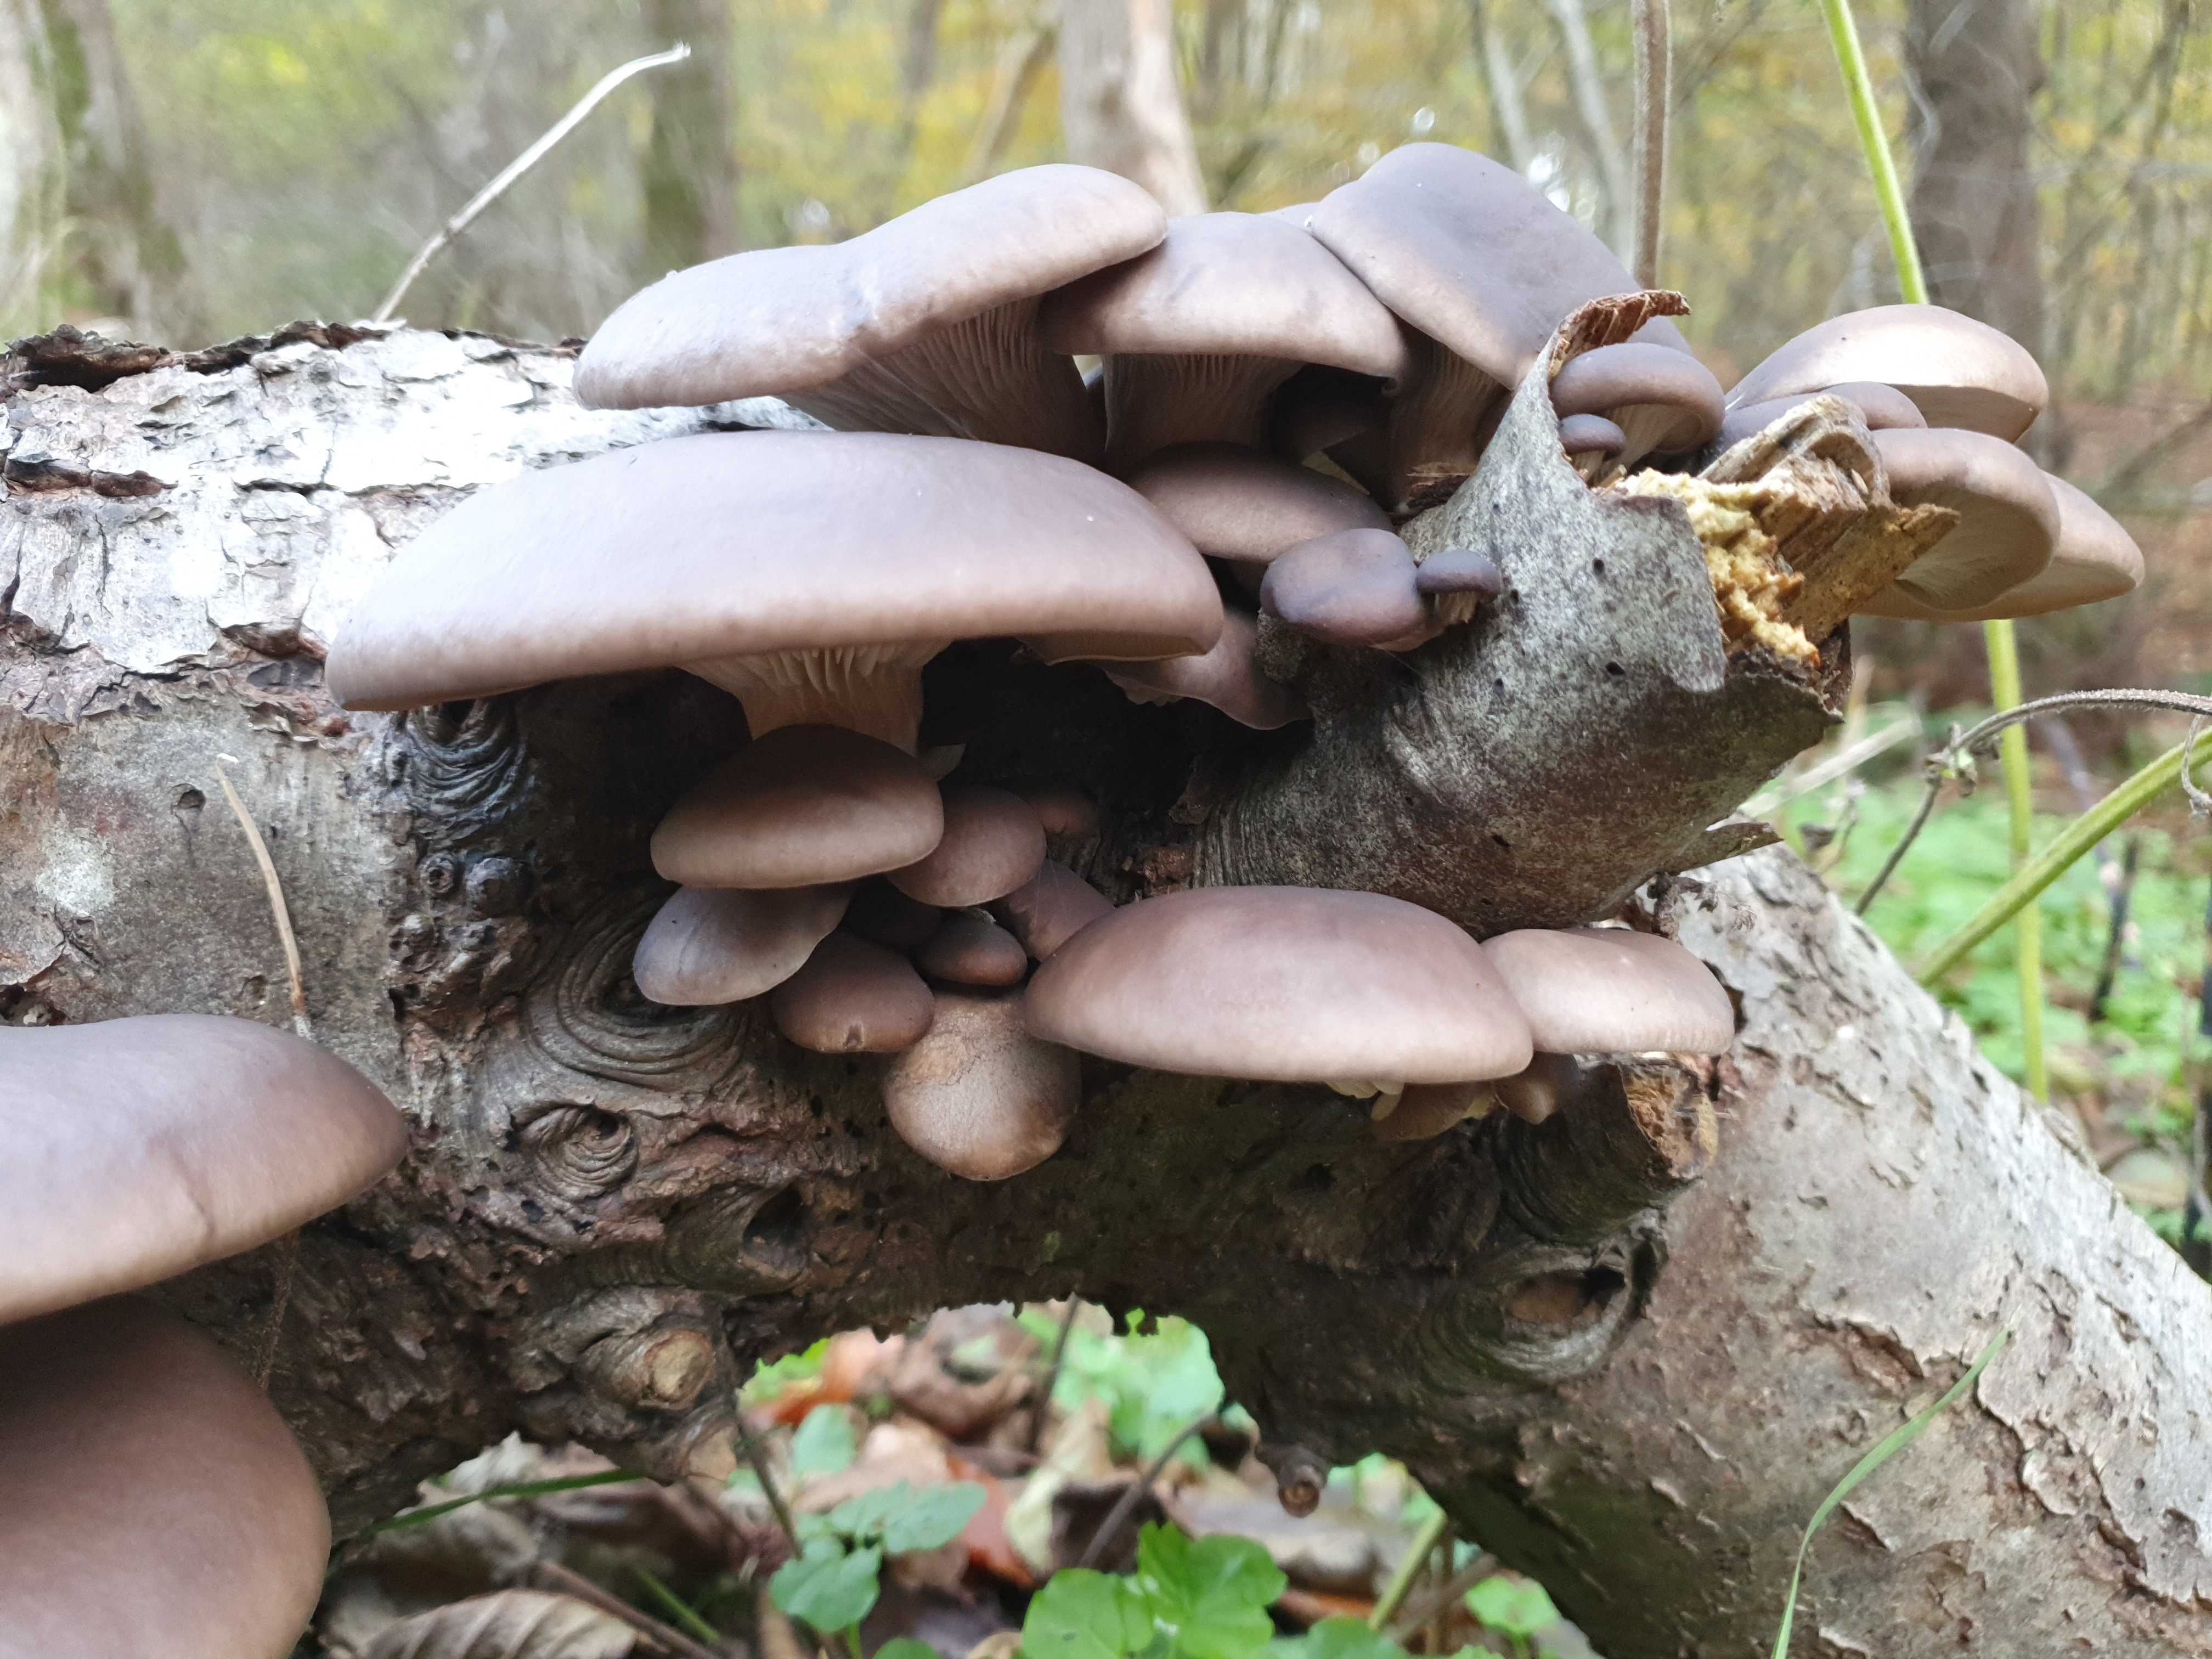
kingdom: Fungi
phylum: Basidiomycota
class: Agaricomycetes
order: Agaricales
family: Pleurotaceae
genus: Pleurotus
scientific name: Pleurotus ostreatus
